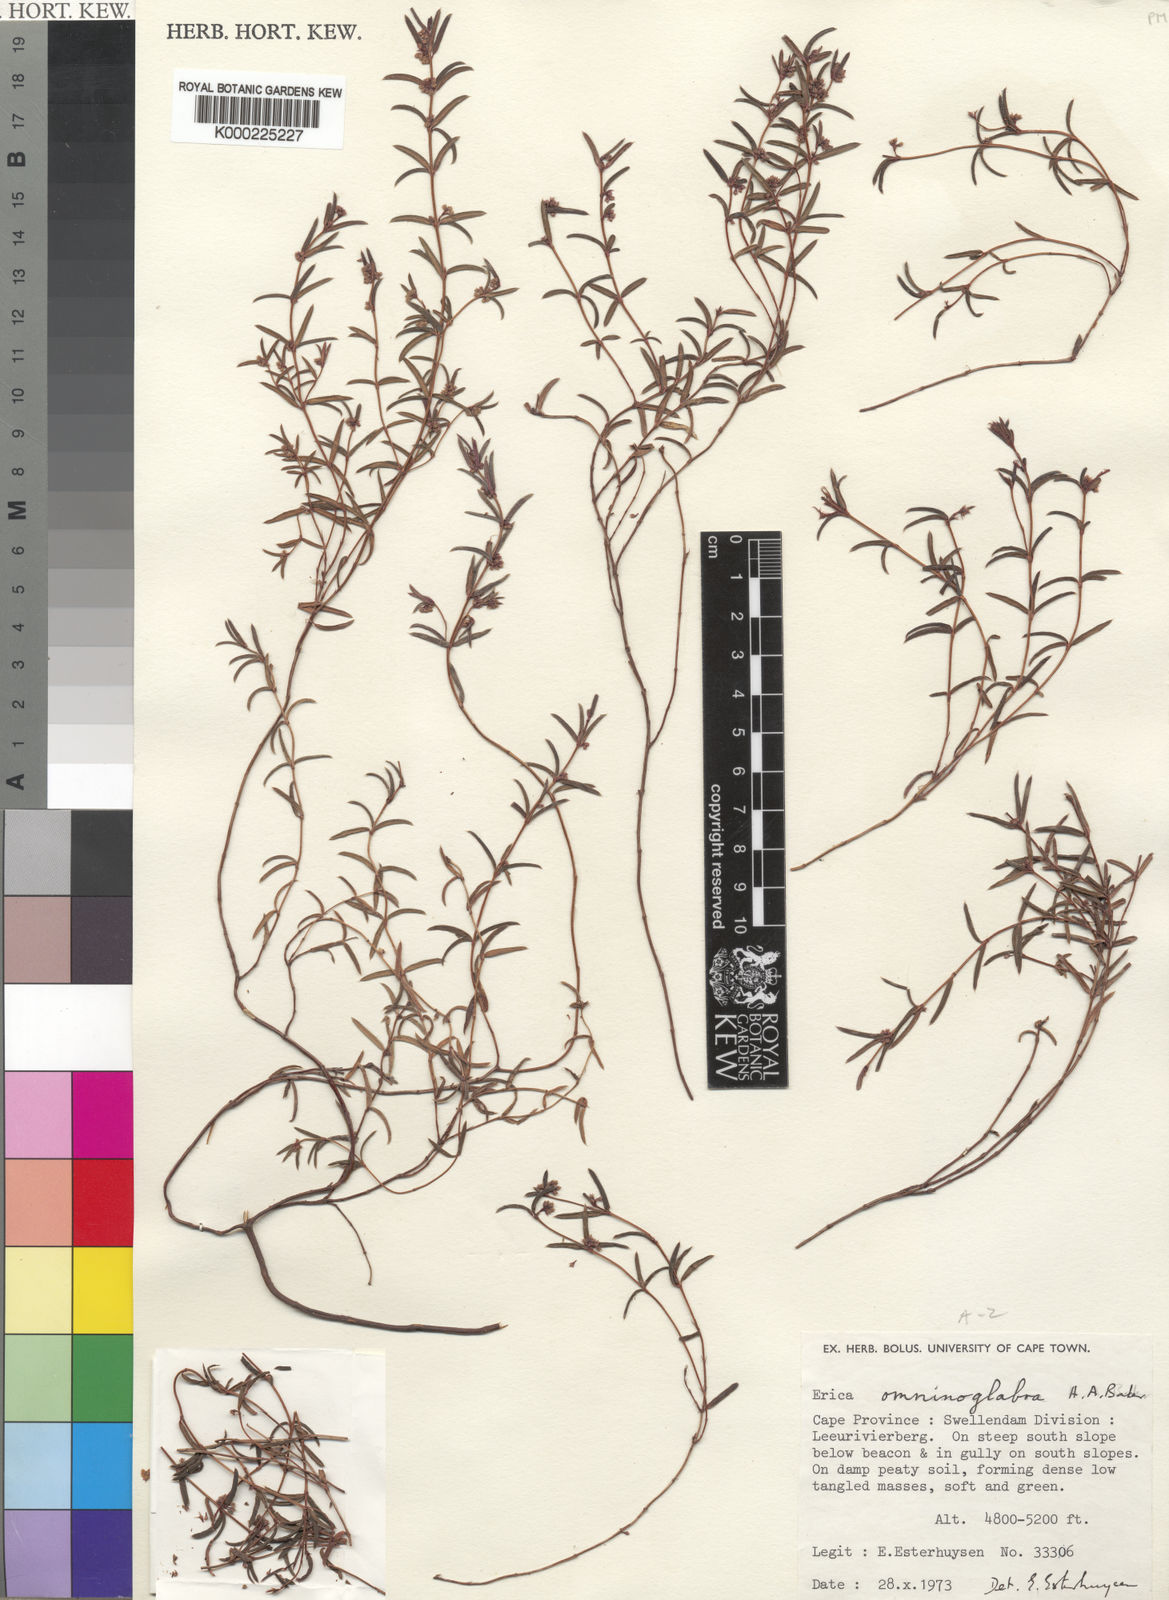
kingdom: Plantae
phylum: Tracheophyta
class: Magnoliopsida
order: Ericales
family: Ericaceae
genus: Erica
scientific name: Erica omninoglabra
